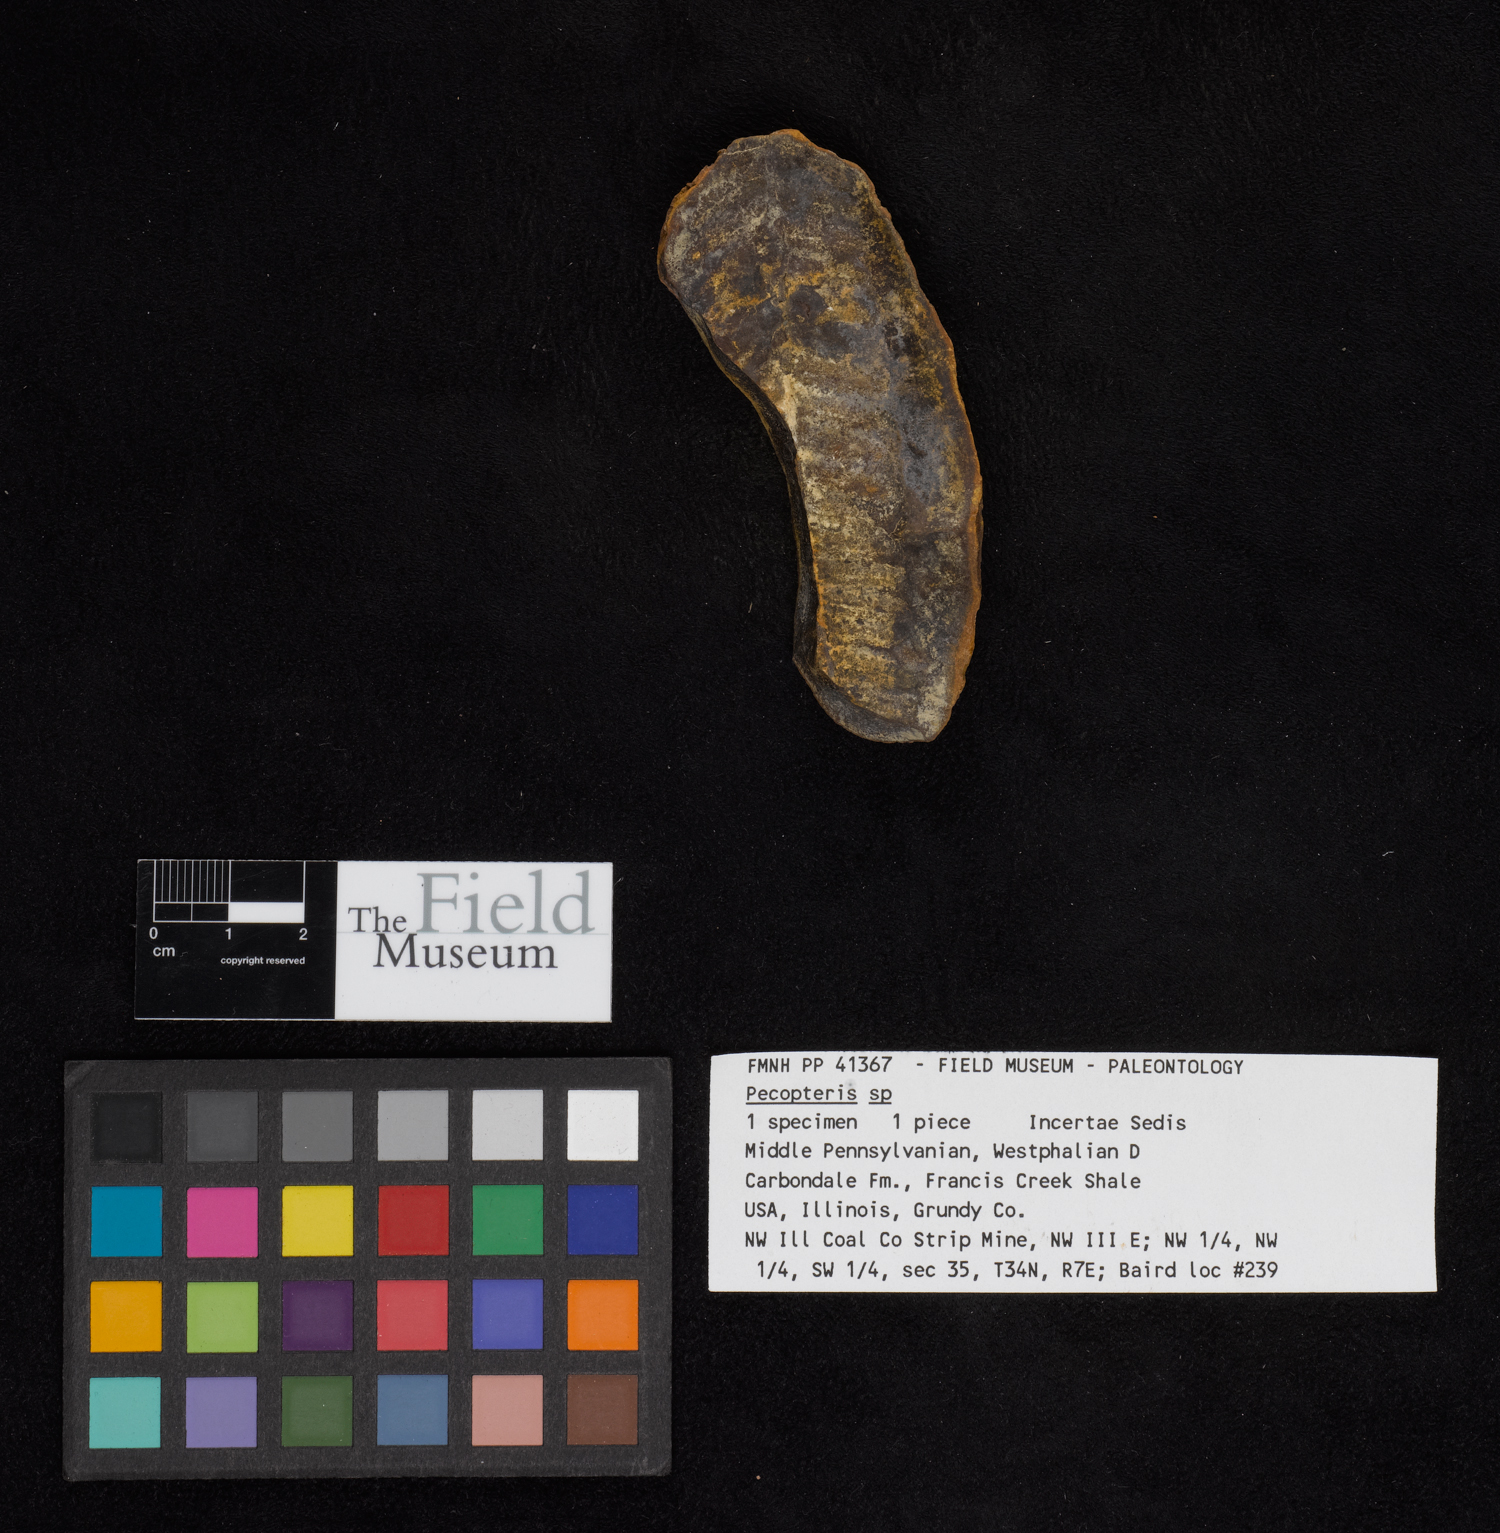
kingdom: Plantae
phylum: Tracheophyta
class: Polypodiopsida
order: Marattiales
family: Asterothecaceae
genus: Pecopteris
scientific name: Pecopteris
